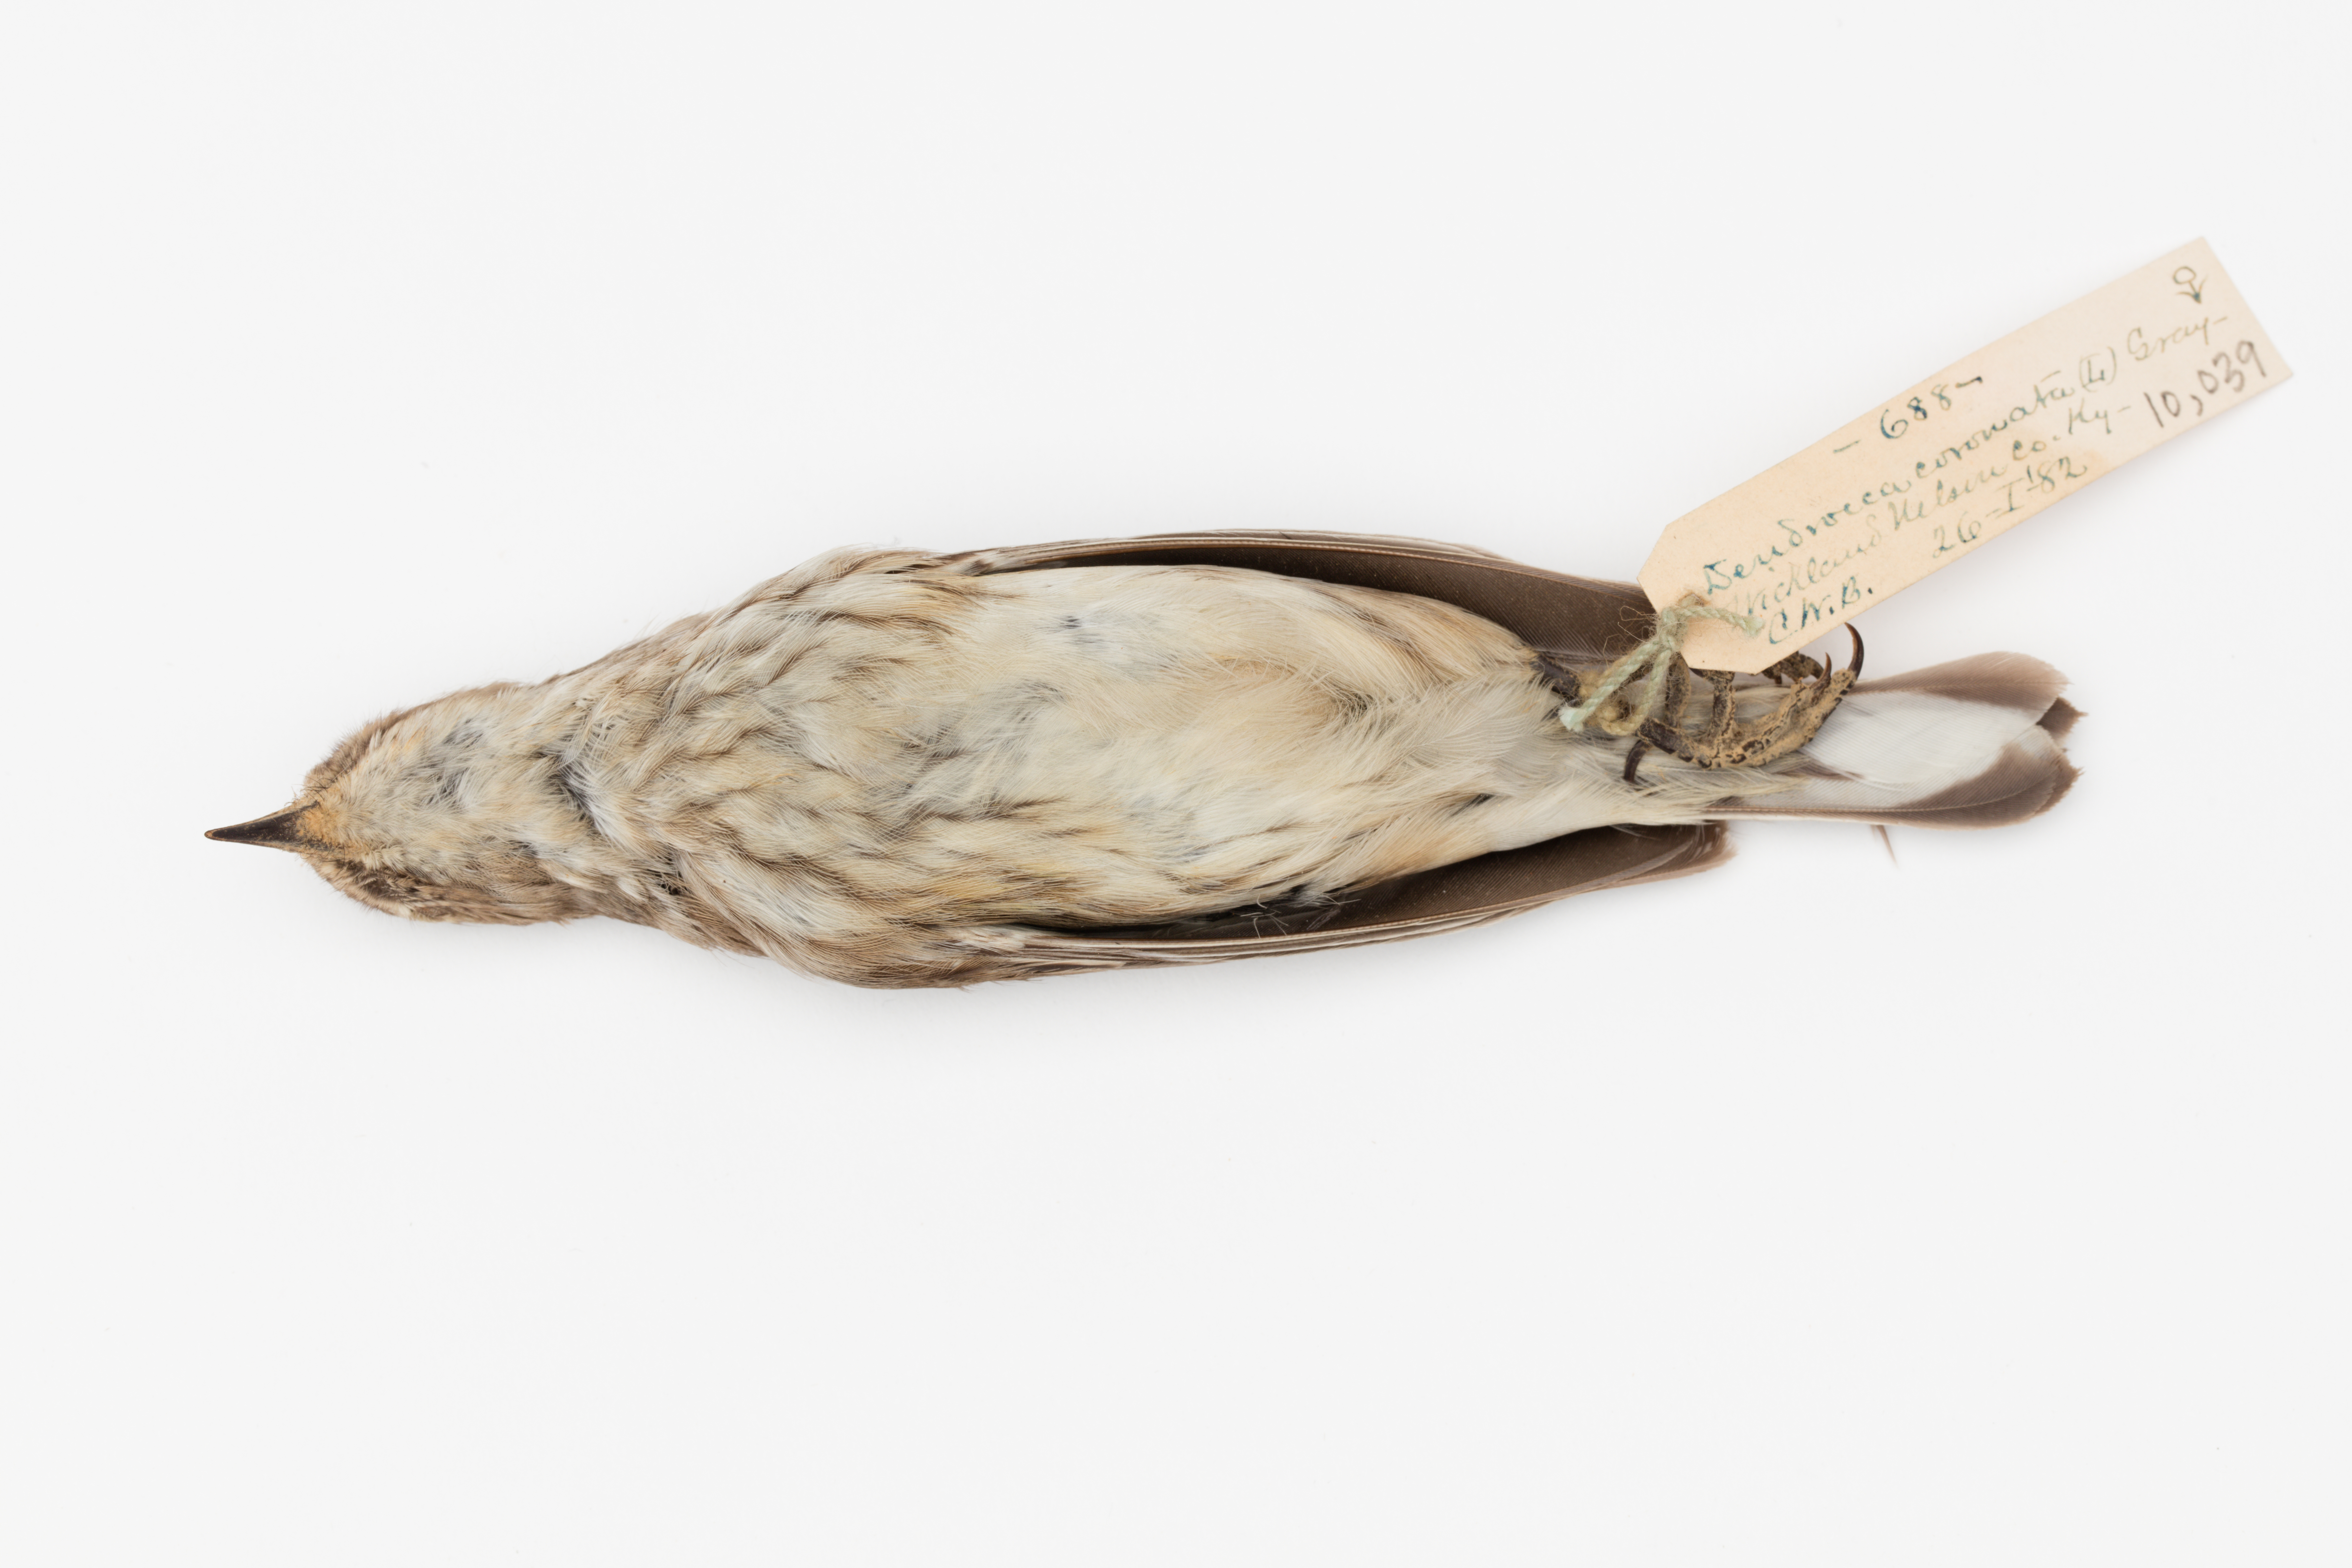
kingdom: Animalia
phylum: Chordata
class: Aves
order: Passeriformes
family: Parulidae
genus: Setophaga
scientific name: Setophaga coronata
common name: Myrtle warbler
